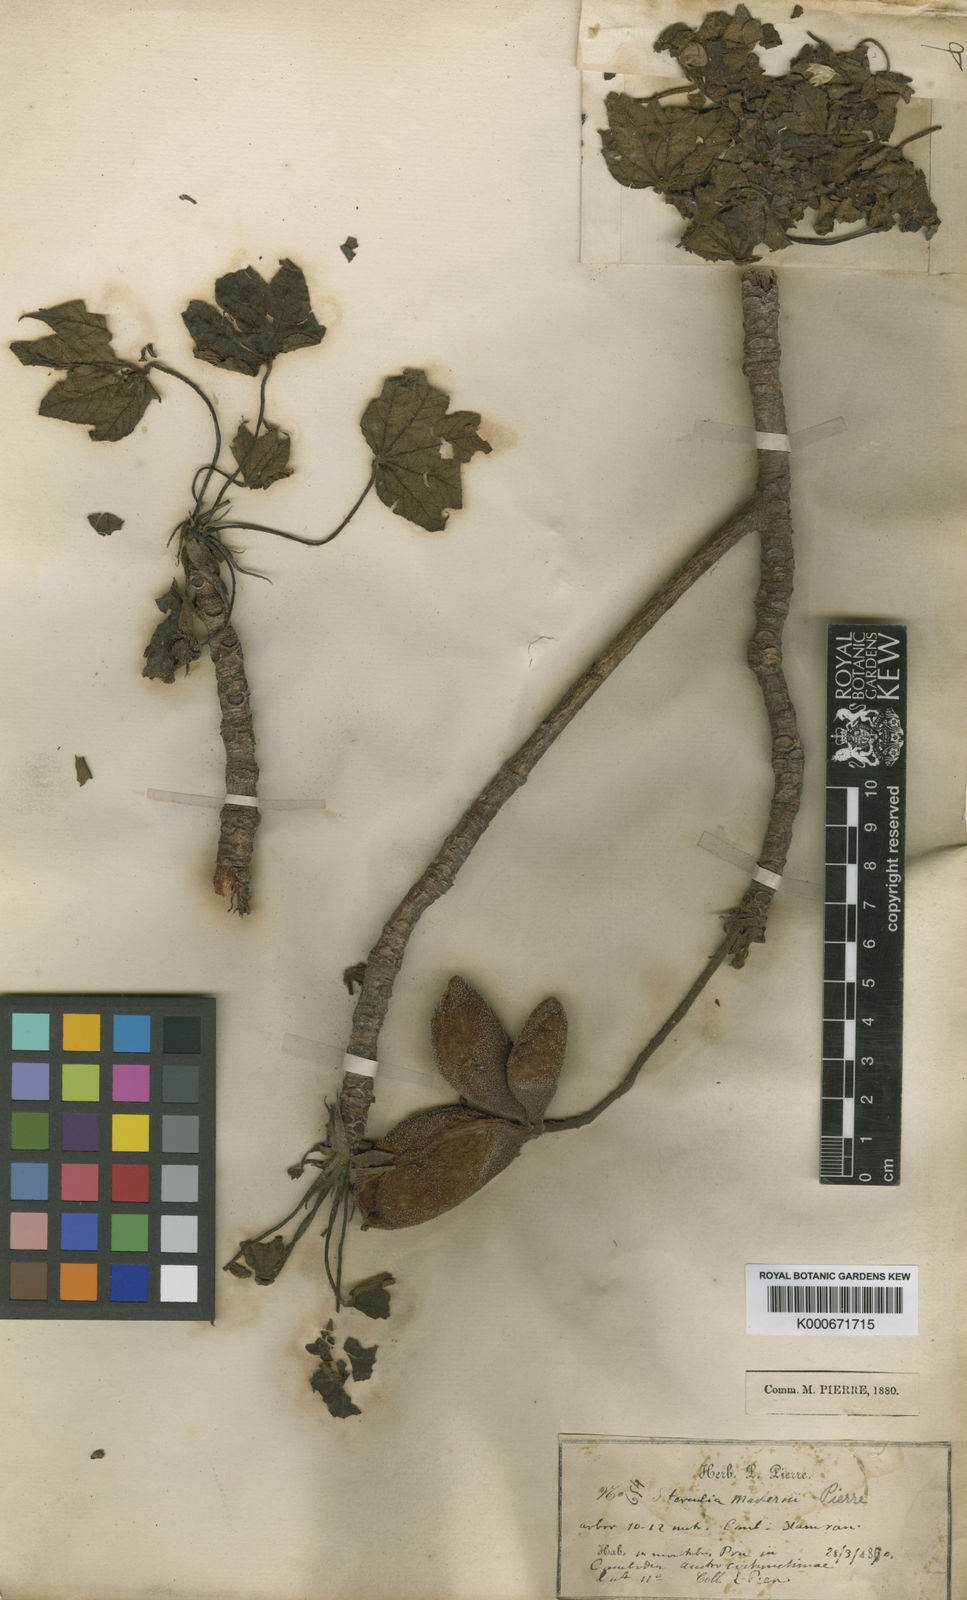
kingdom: Plantae
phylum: Tracheophyta
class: Magnoliopsida
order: Malvales
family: Malvaceae
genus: Sterculia
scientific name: Sterculia mastersii
